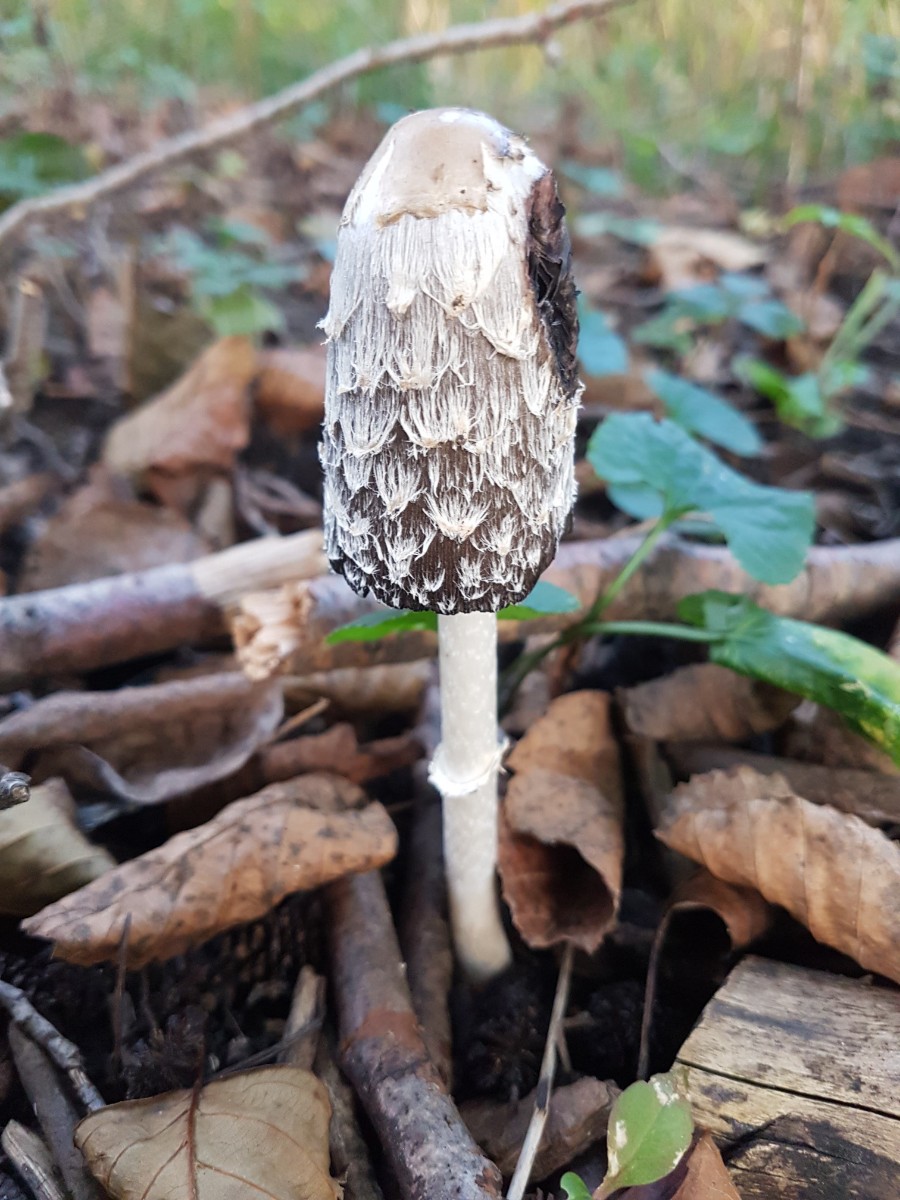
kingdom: Fungi
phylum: Basidiomycota
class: Agaricomycetes
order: Agaricales
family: Agaricaceae
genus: Coprinus
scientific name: Coprinus comatus
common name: stor parykhat
